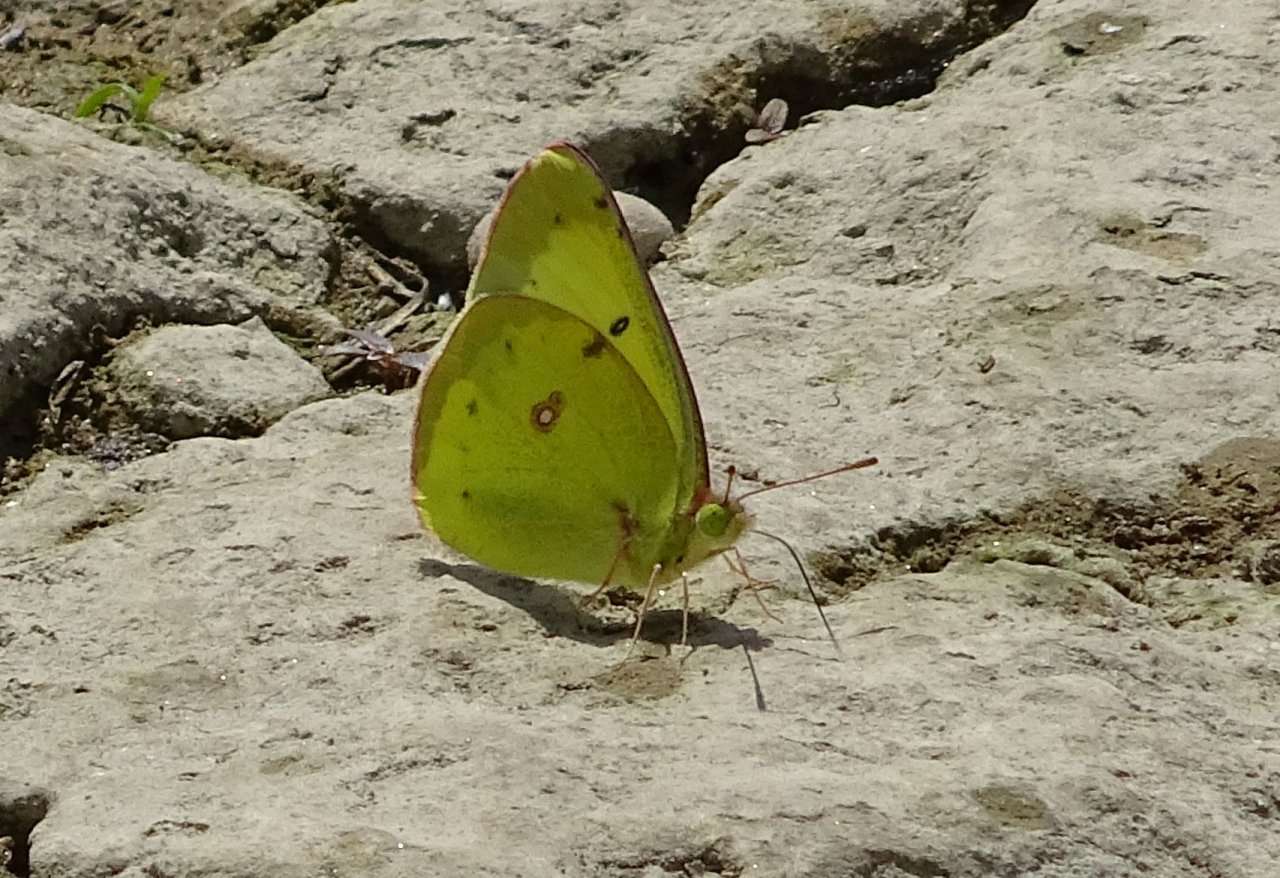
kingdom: Animalia
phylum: Arthropoda
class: Insecta
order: Lepidoptera
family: Pieridae
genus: Colias
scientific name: Colias philodice
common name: Clouded Sulphur
